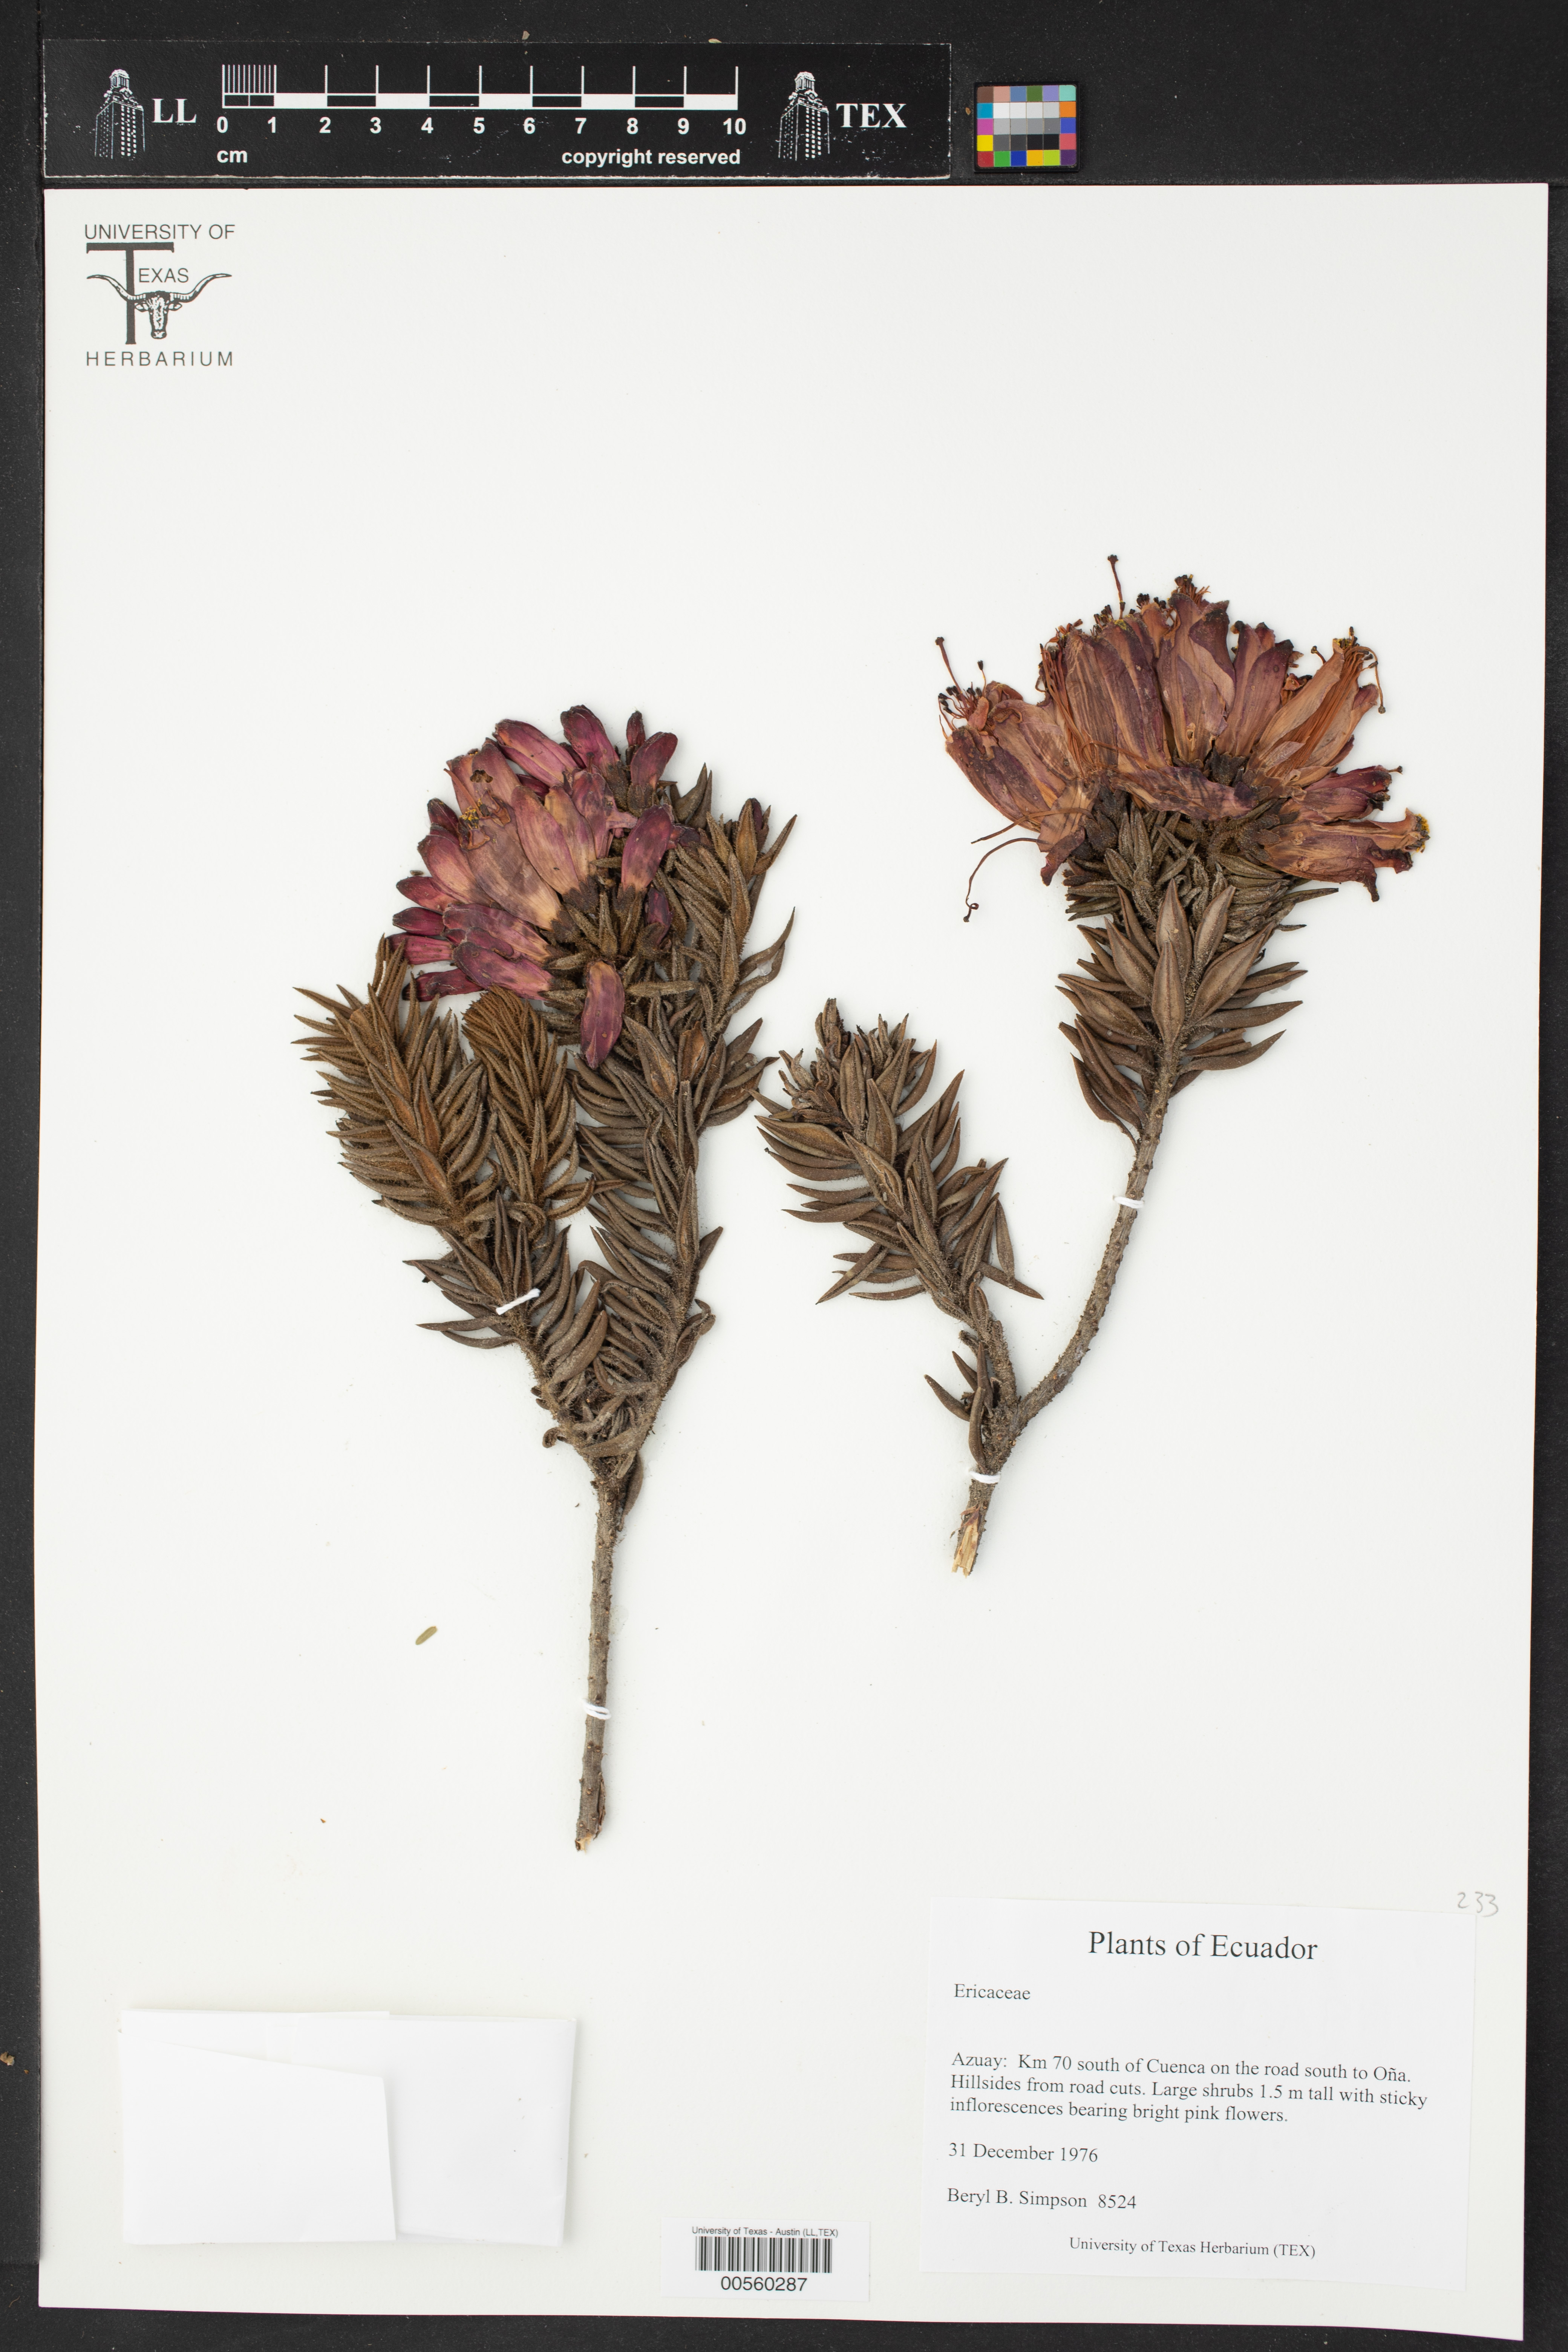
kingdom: Plantae
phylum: Tracheophyta
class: Magnoliopsida
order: Lamiales
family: Bignoniaceae
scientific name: Bignoniaceae
